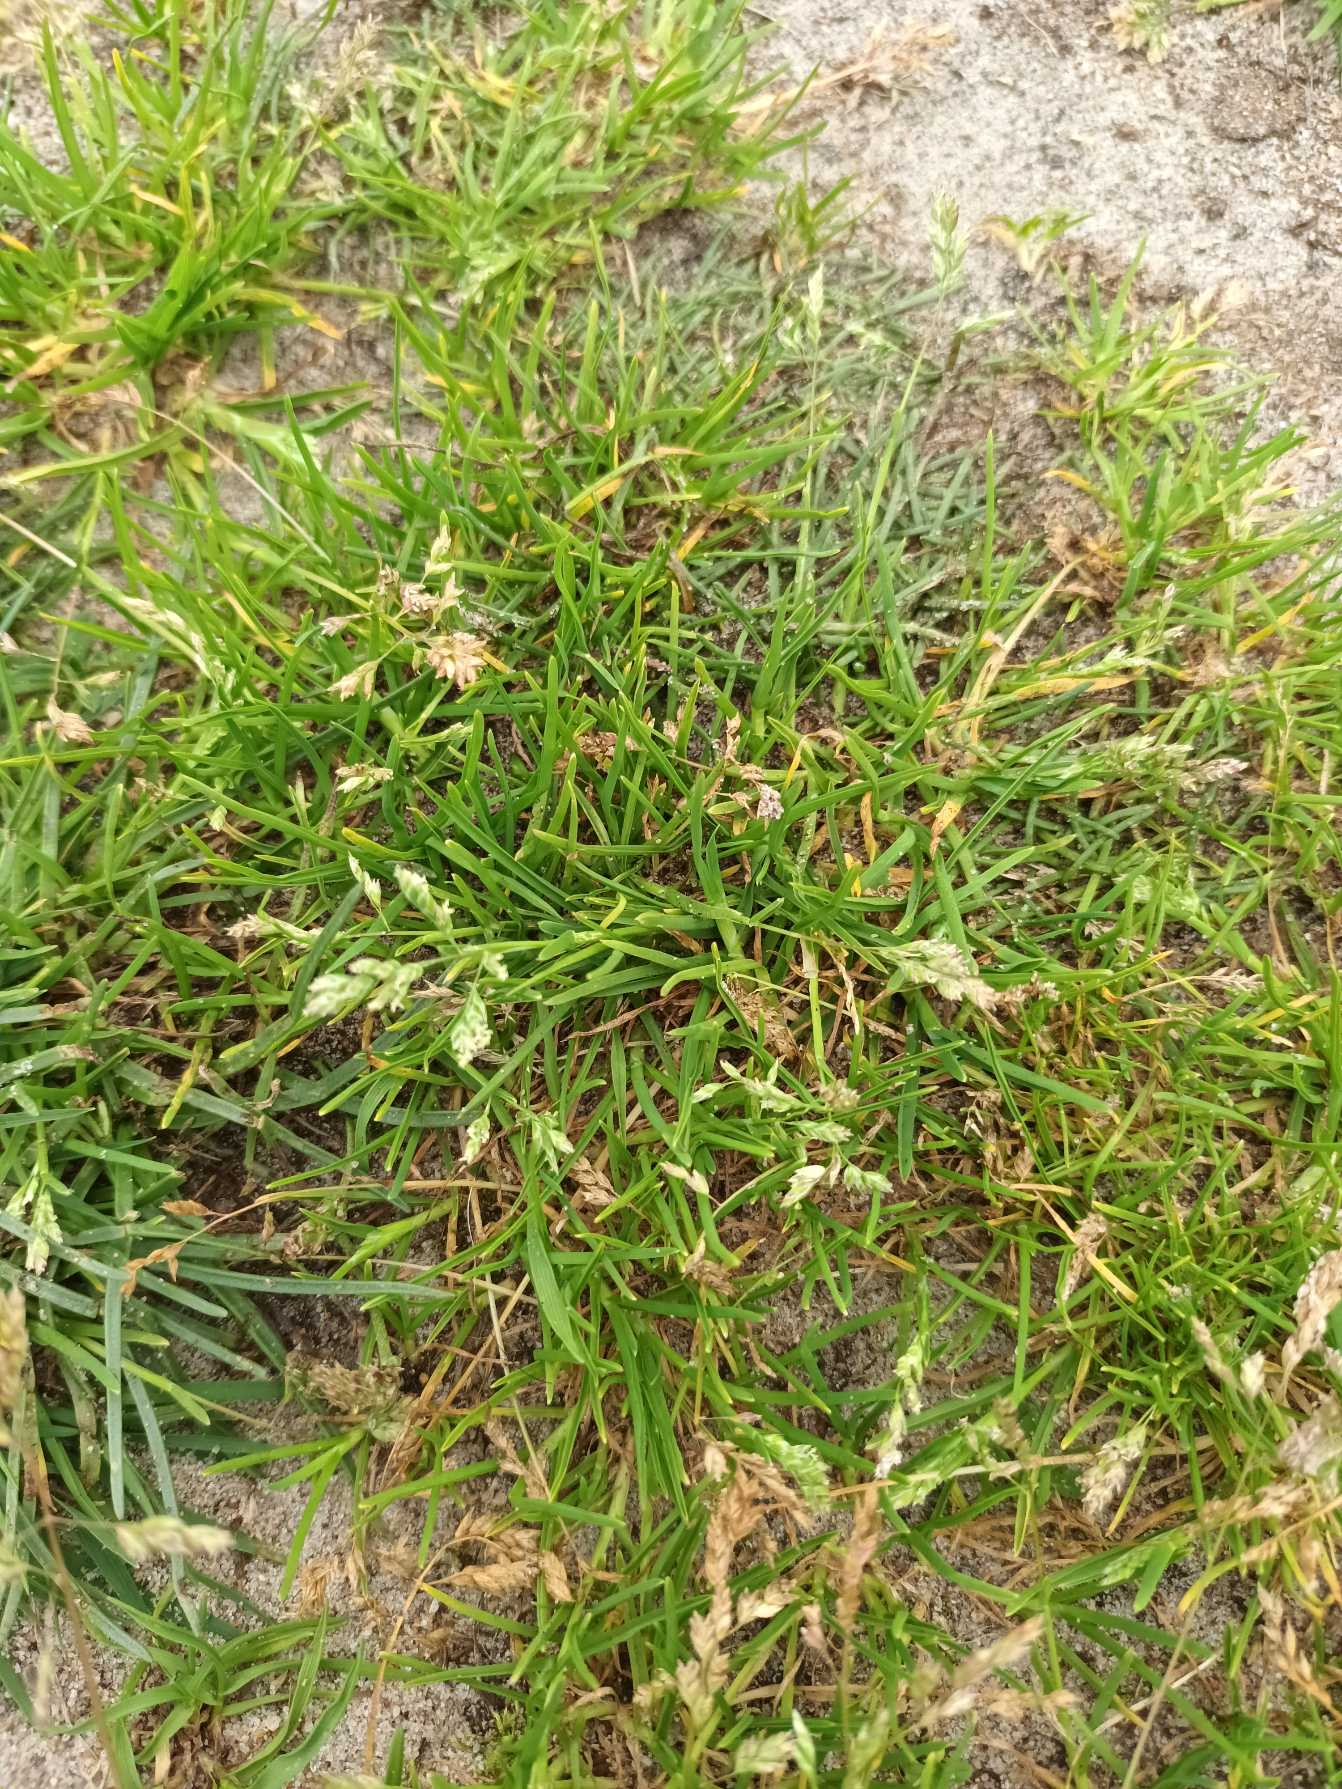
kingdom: Plantae
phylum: Tracheophyta
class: Liliopsida
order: Poales
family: Poaceae
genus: Poa
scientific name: Poa annua
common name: Enårig rapgræs
